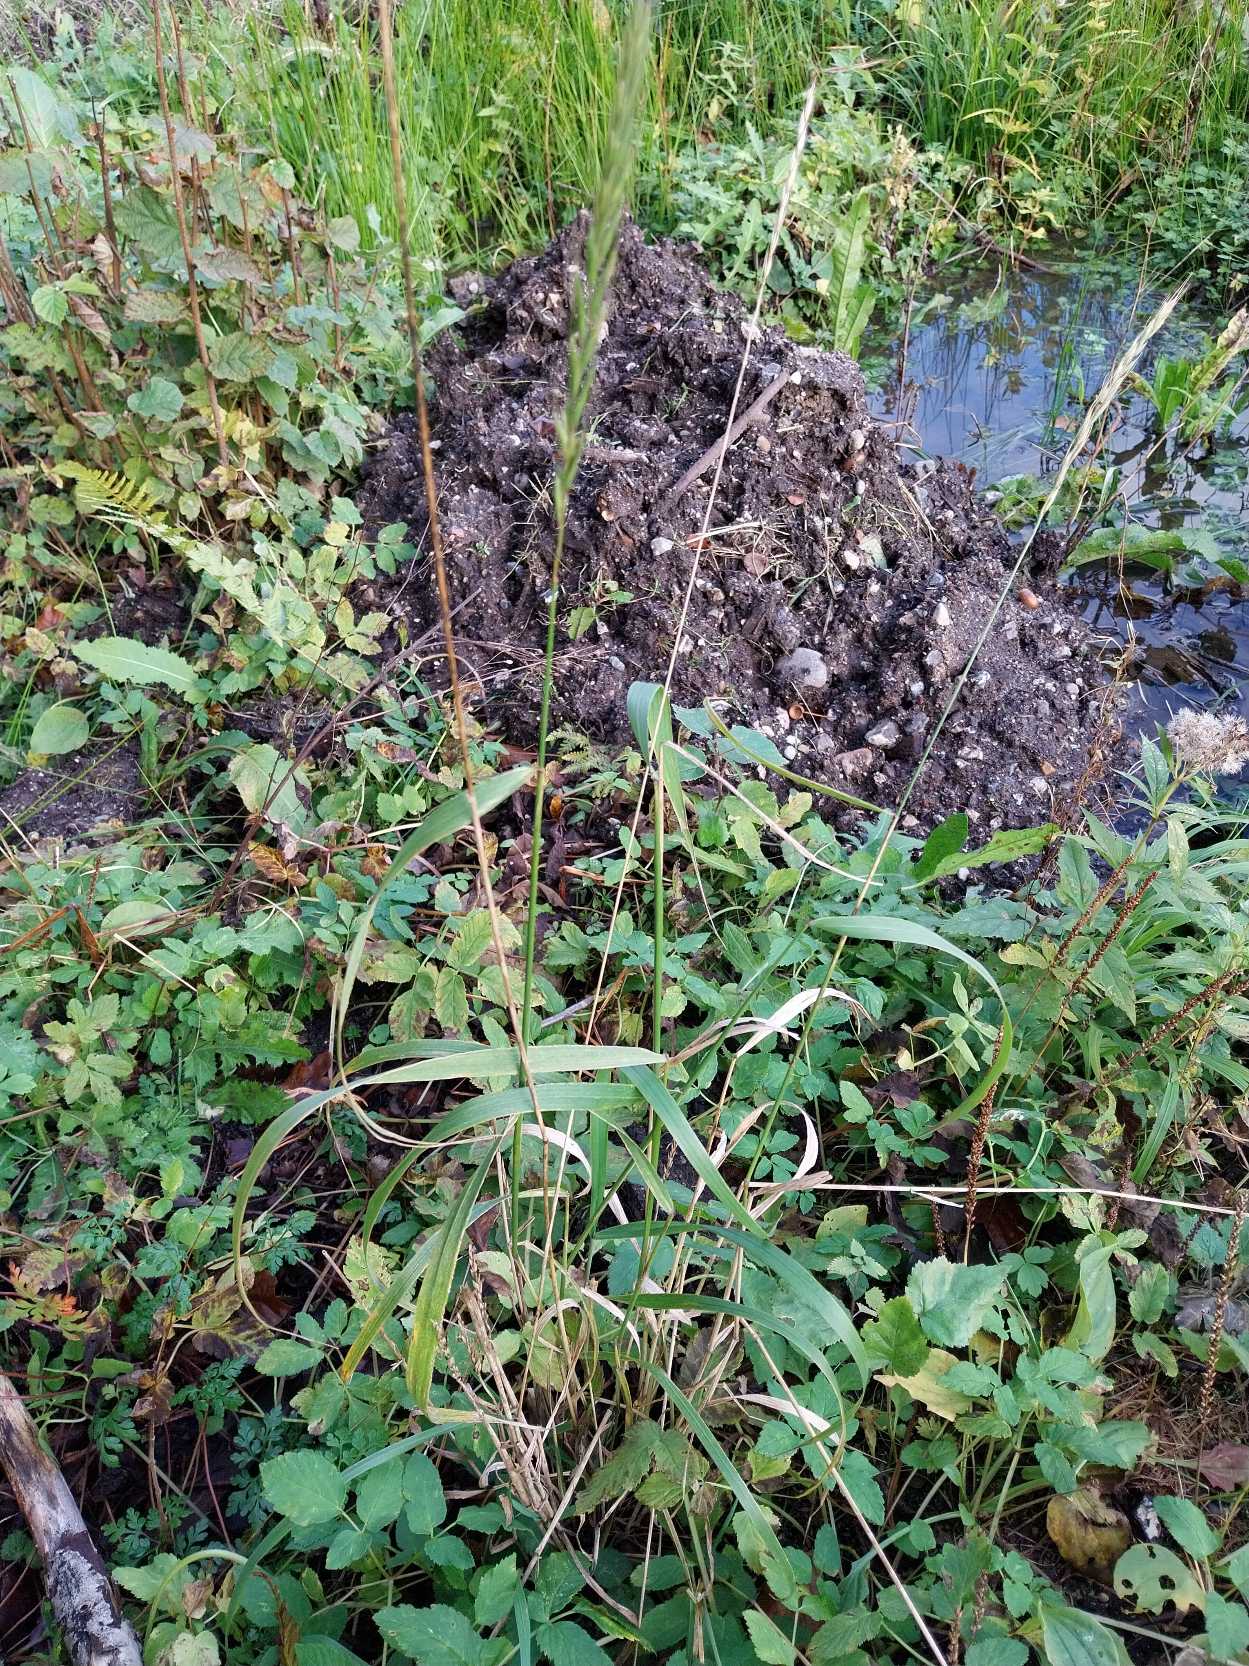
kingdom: Plantae
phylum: Tracheophyta
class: Liliopsida
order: Poales
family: Poaceae
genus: Elymus
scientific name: Elymus caninus
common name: Hundekvik
